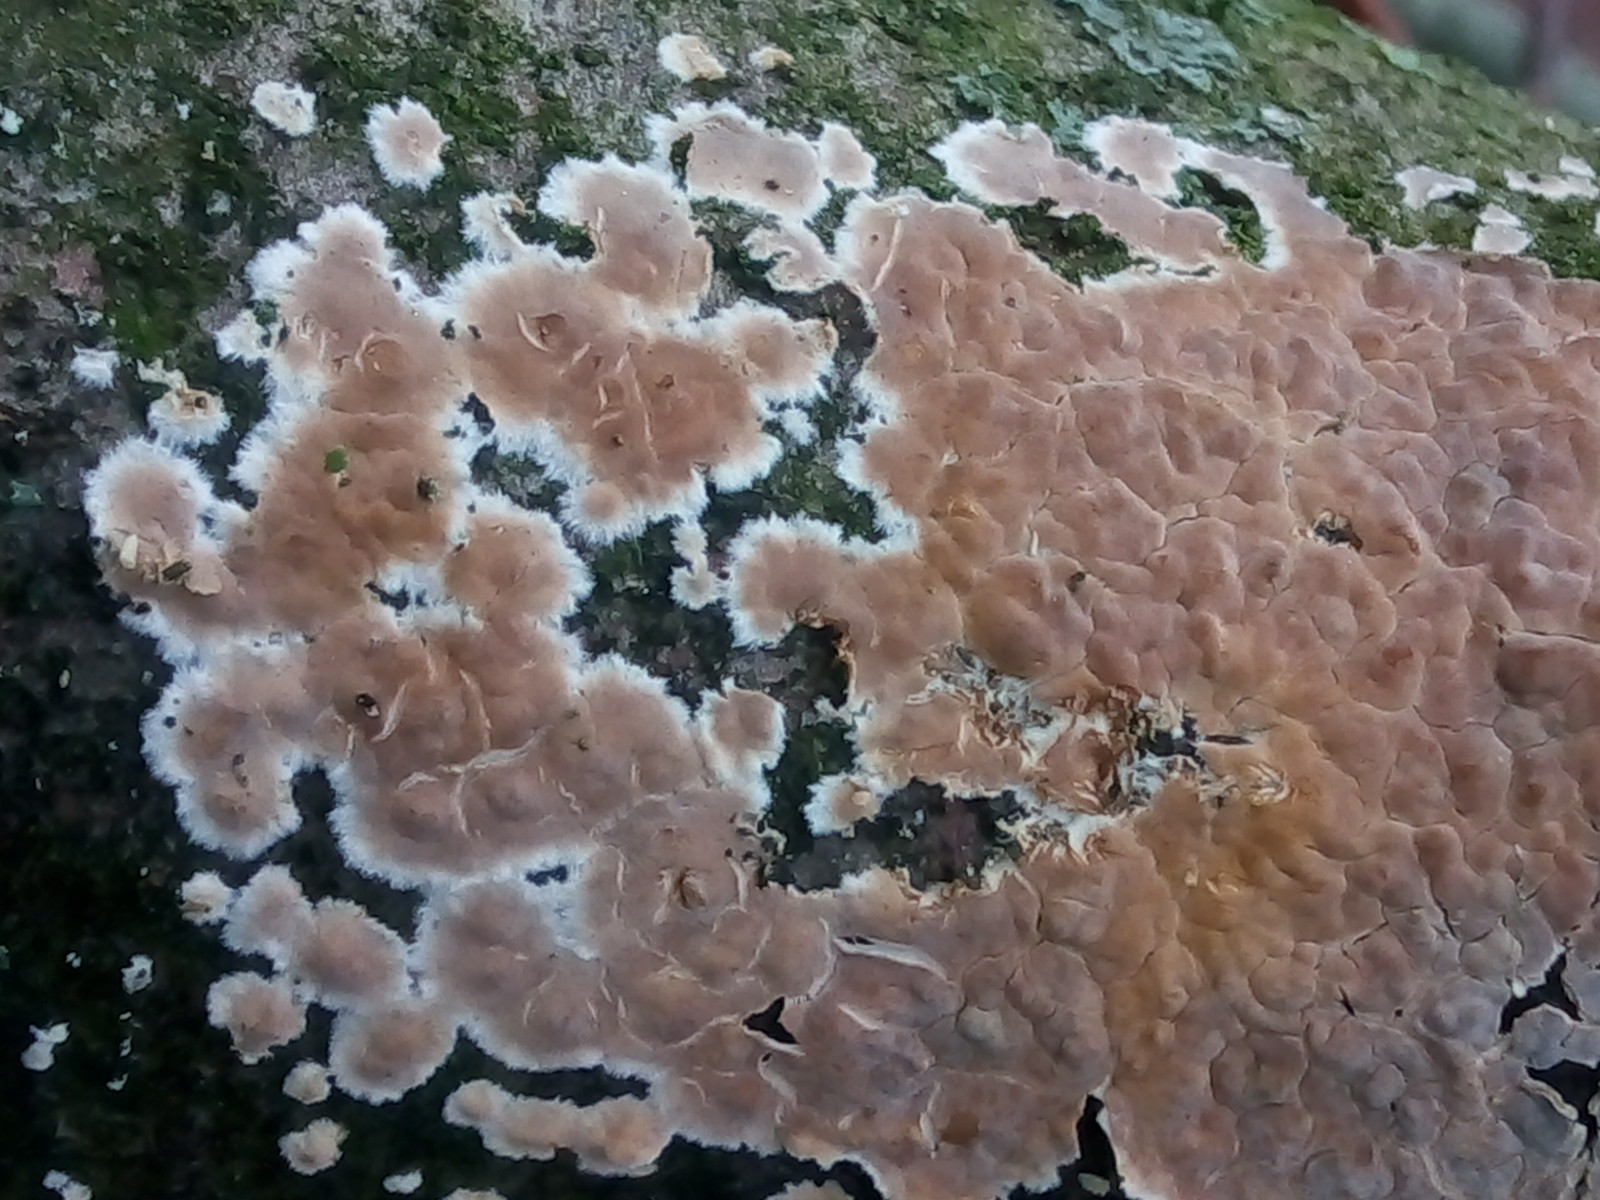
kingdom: Fungi
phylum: Basidiomycota
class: Agaricomycetes
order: Agaricales
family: Physalacriaceae
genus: Cylindrobasidium
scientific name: Cylindrobasidium evolvens
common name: sprækkehinde
